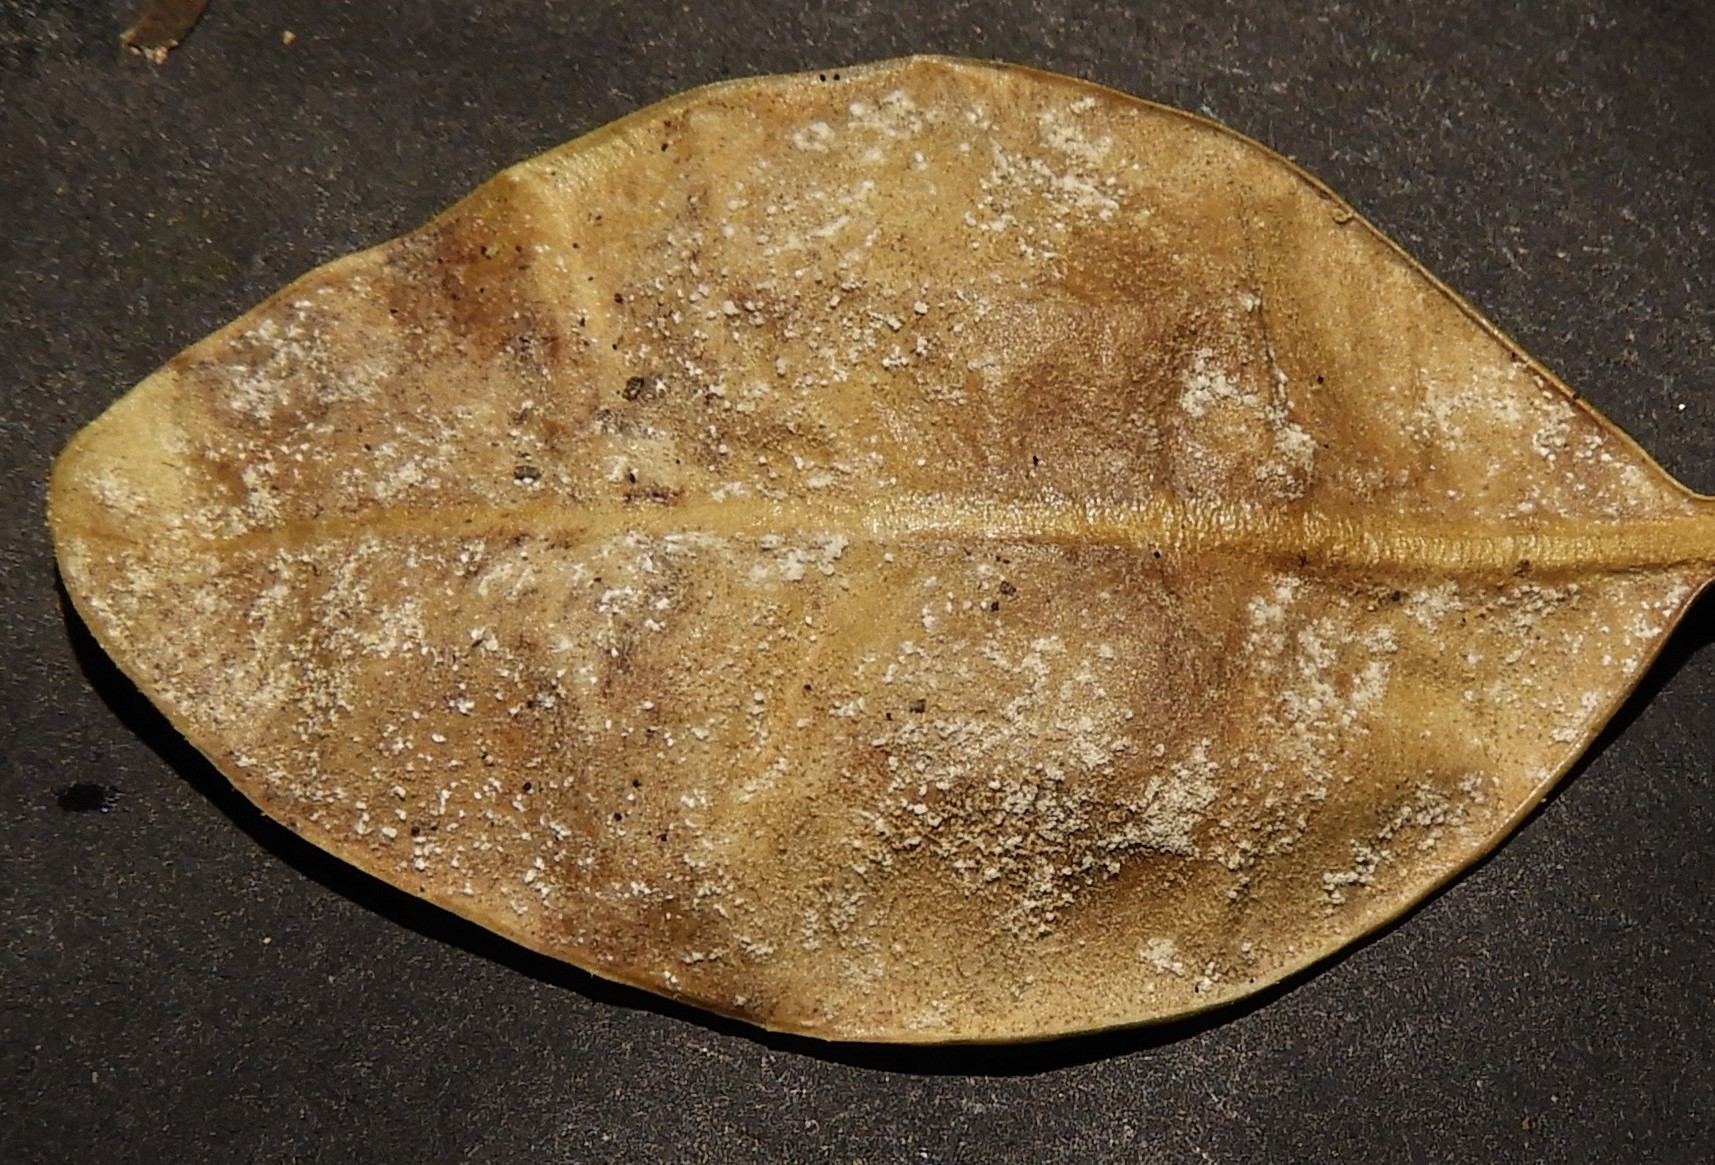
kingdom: Fungi
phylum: Ascomycota
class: Sordariomycetes
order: Hypocreales
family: Nectriaceae
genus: Pseudonectria
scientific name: Pseudonectria buxi
